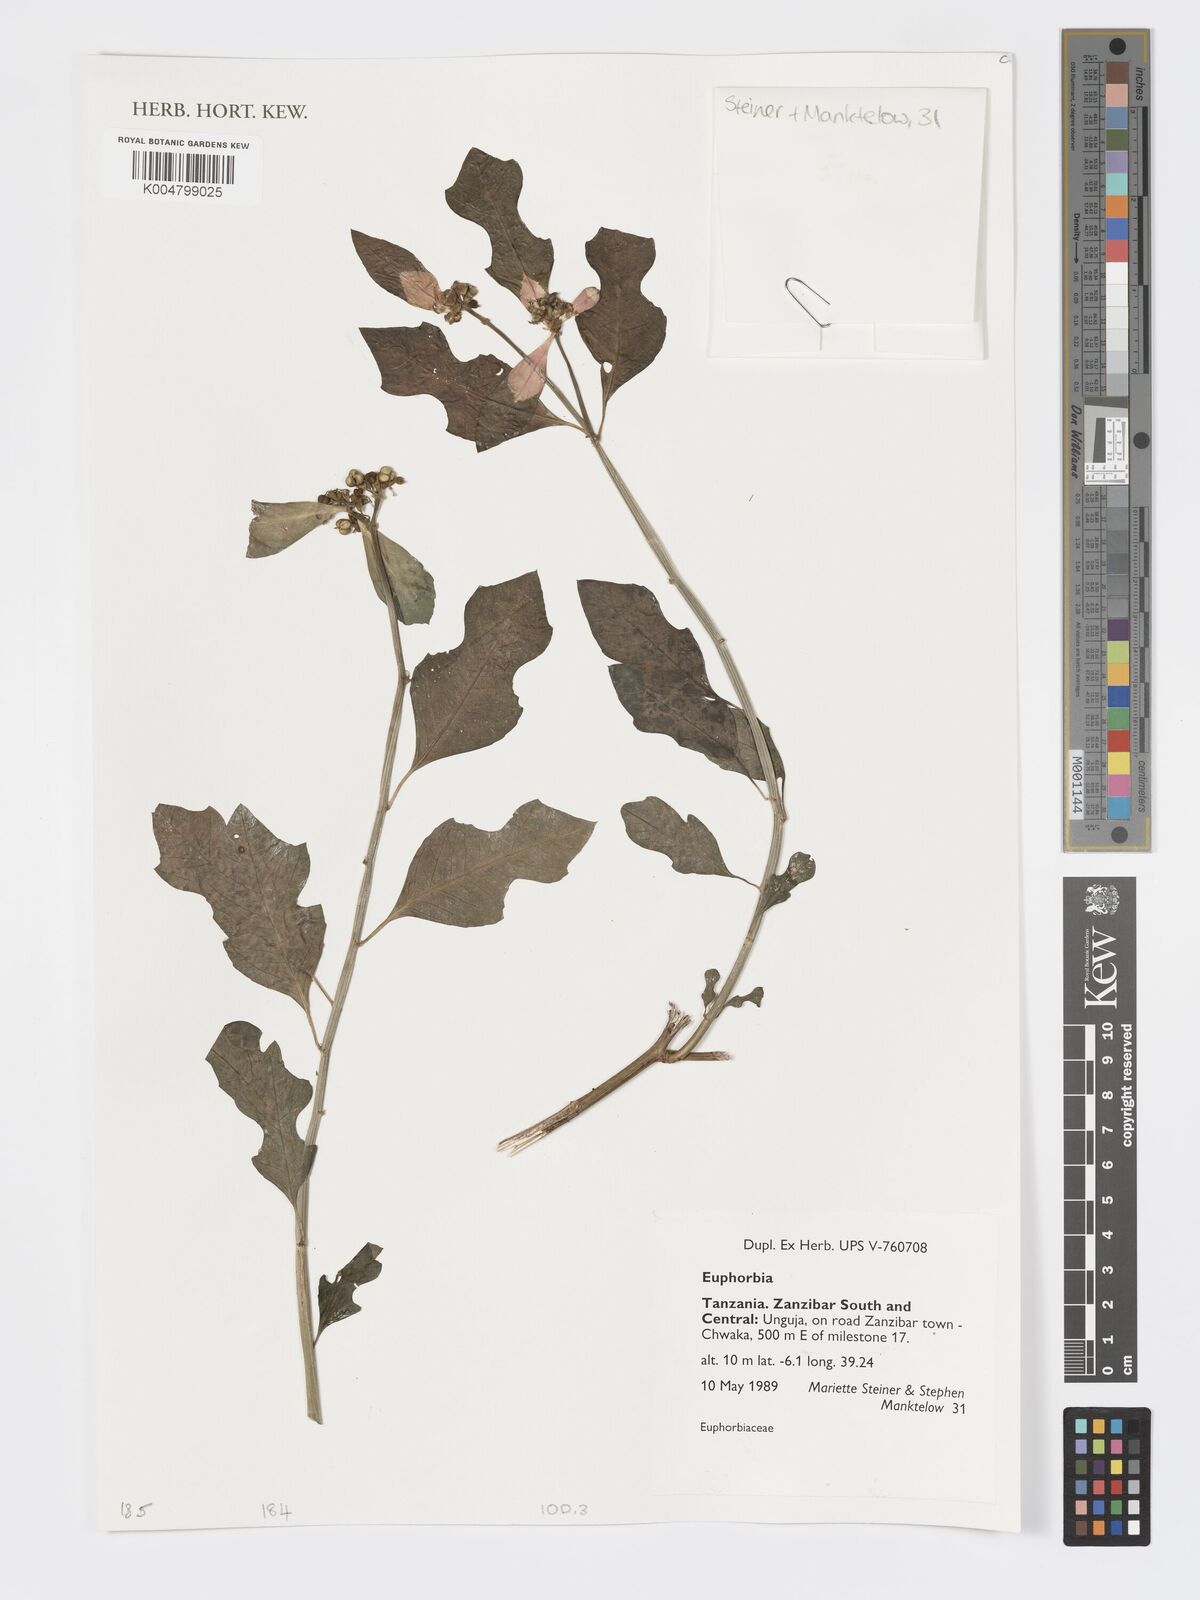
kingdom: Plantae
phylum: Tracheophyta
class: Magnoliopsida
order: Malpighiales
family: Euphorbiaceae
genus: Euphorbia
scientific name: Euphorbia
